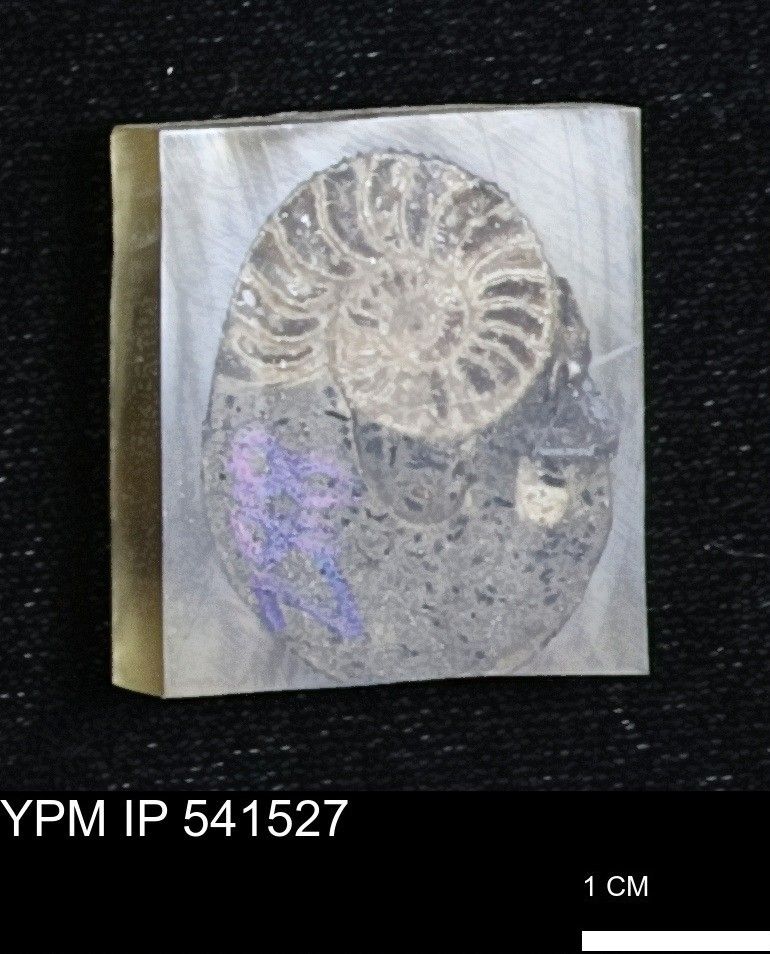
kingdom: Animalia
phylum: Mollusca
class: Cephalopoda
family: Scaphitidae
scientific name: Scaphitidae
